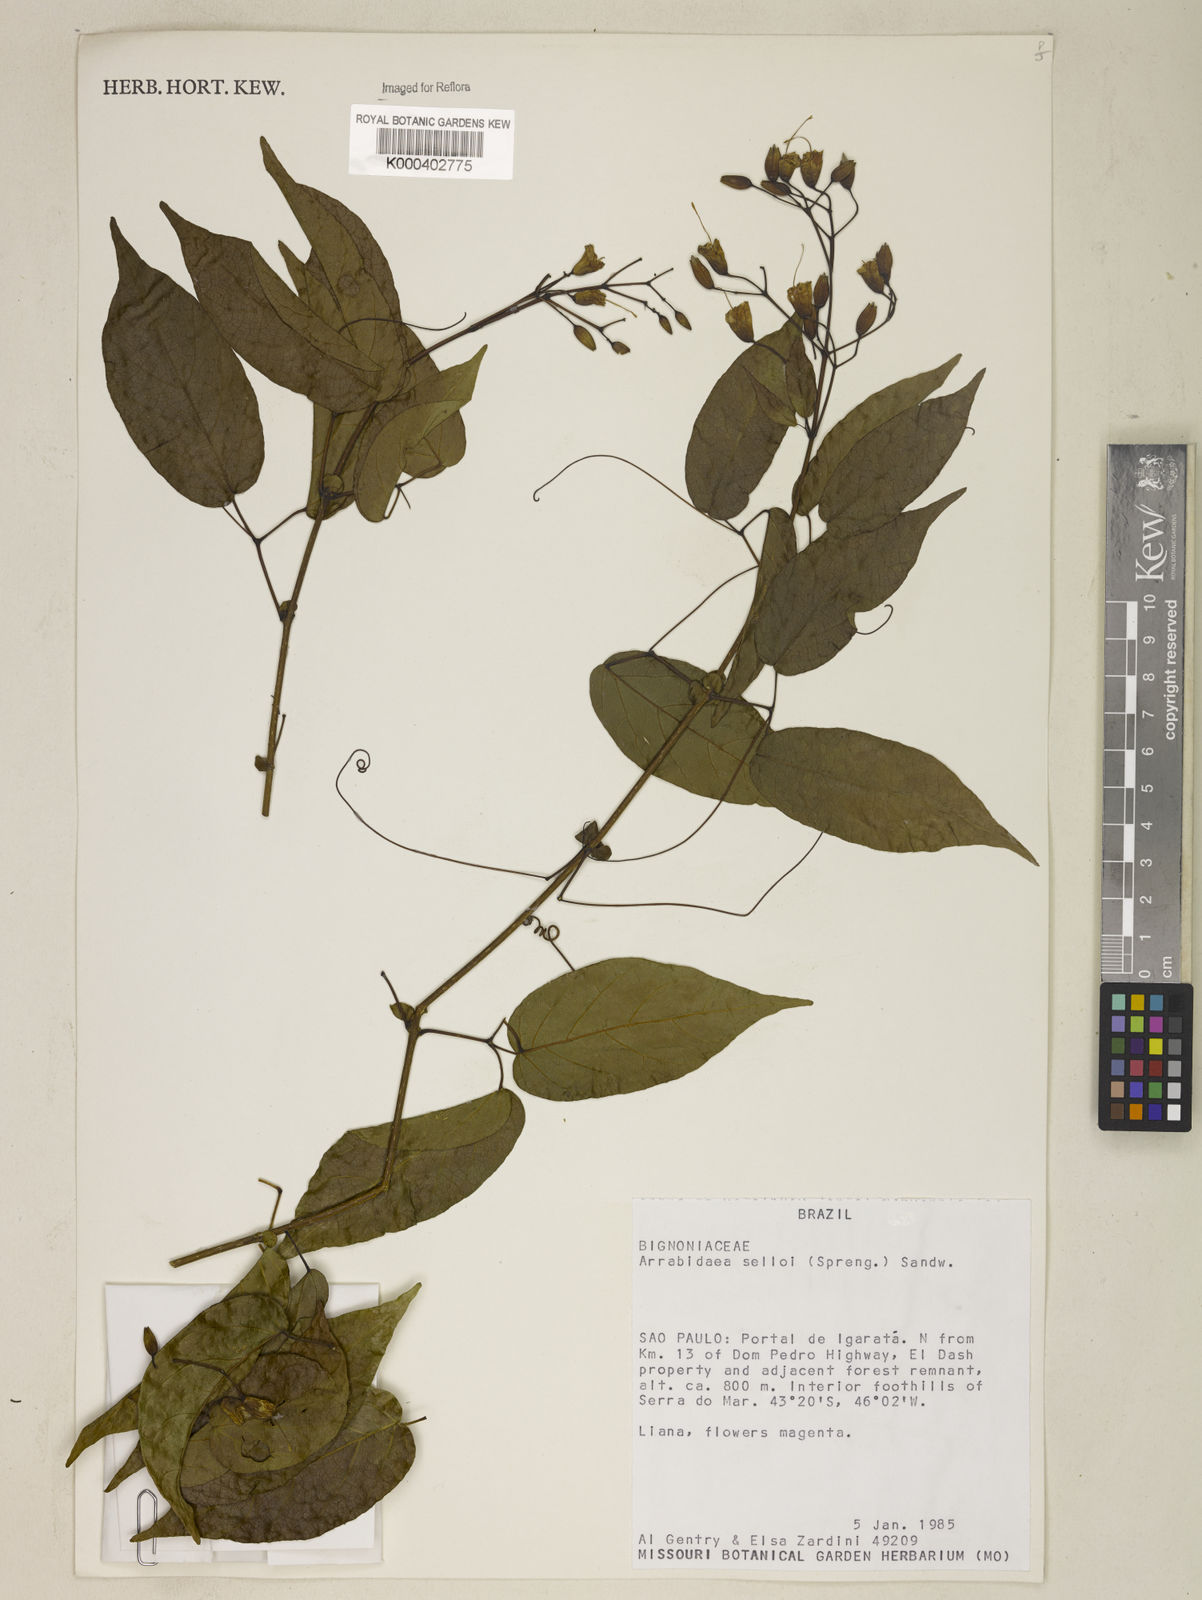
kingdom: Plantae
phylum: Tracheophyta
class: Magnoliopsida
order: Lamiales
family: Bignoniaceae
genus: Tanaecium
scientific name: Tanaecium selloi
